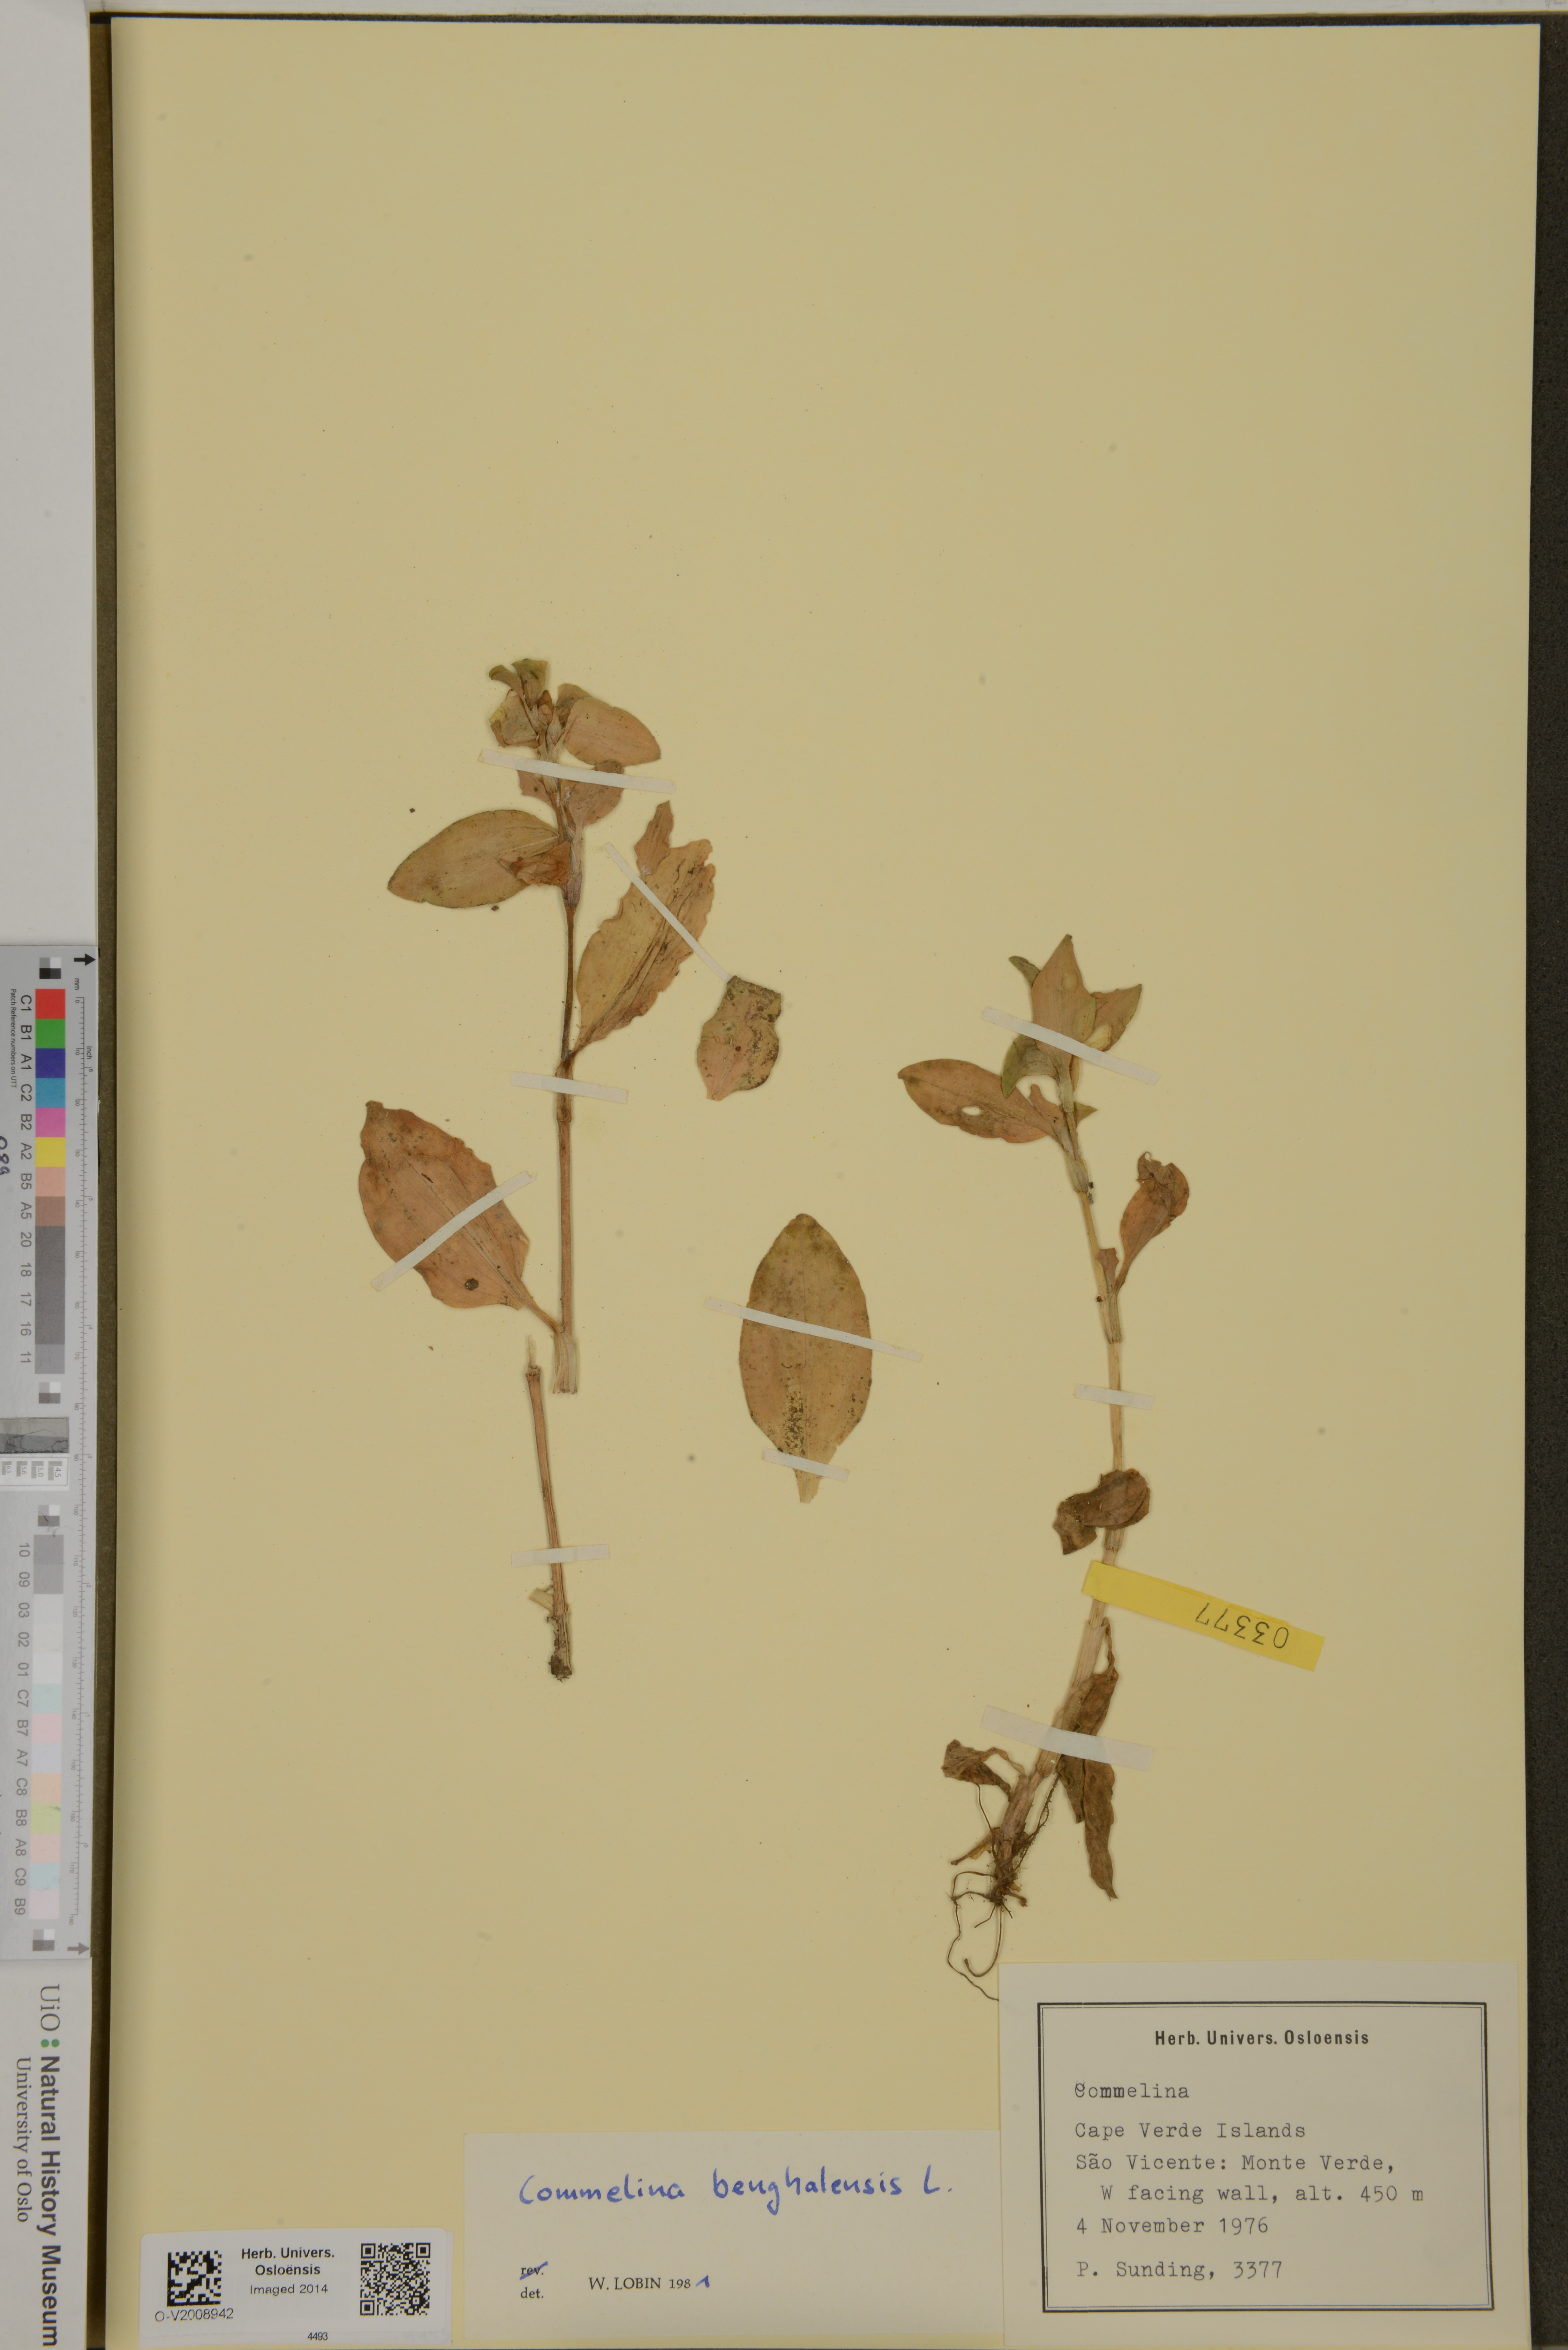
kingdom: Plantae
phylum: Tracheophyta
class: Liliopsida
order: Commelinales
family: Commelinaceae
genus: Commelina
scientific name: Commelina benghalensis
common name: Jio
